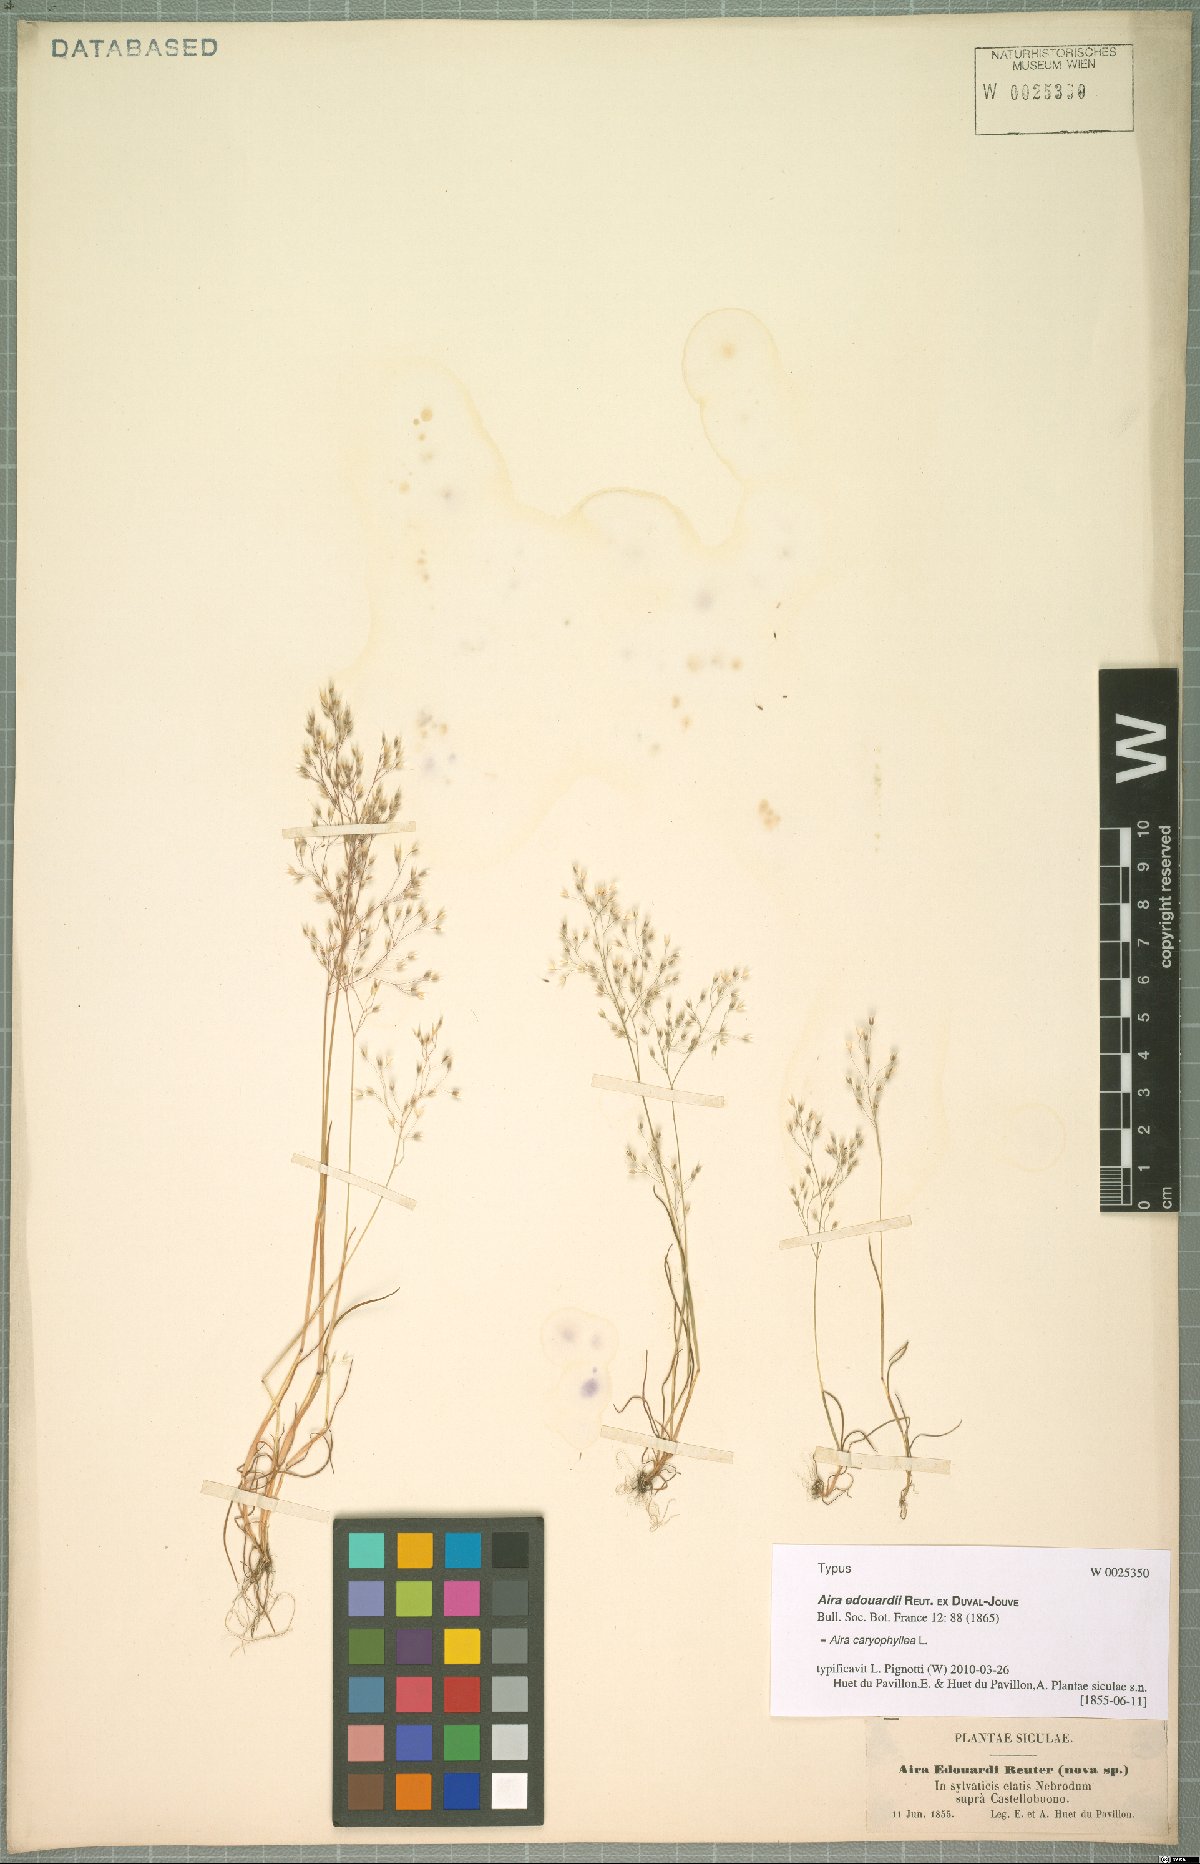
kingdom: Plantae
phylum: Tracheophyta
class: Liliopsida
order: Poales
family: Poaceae
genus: Aira
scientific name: Aira caryophyllea
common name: Silver hairgrass
